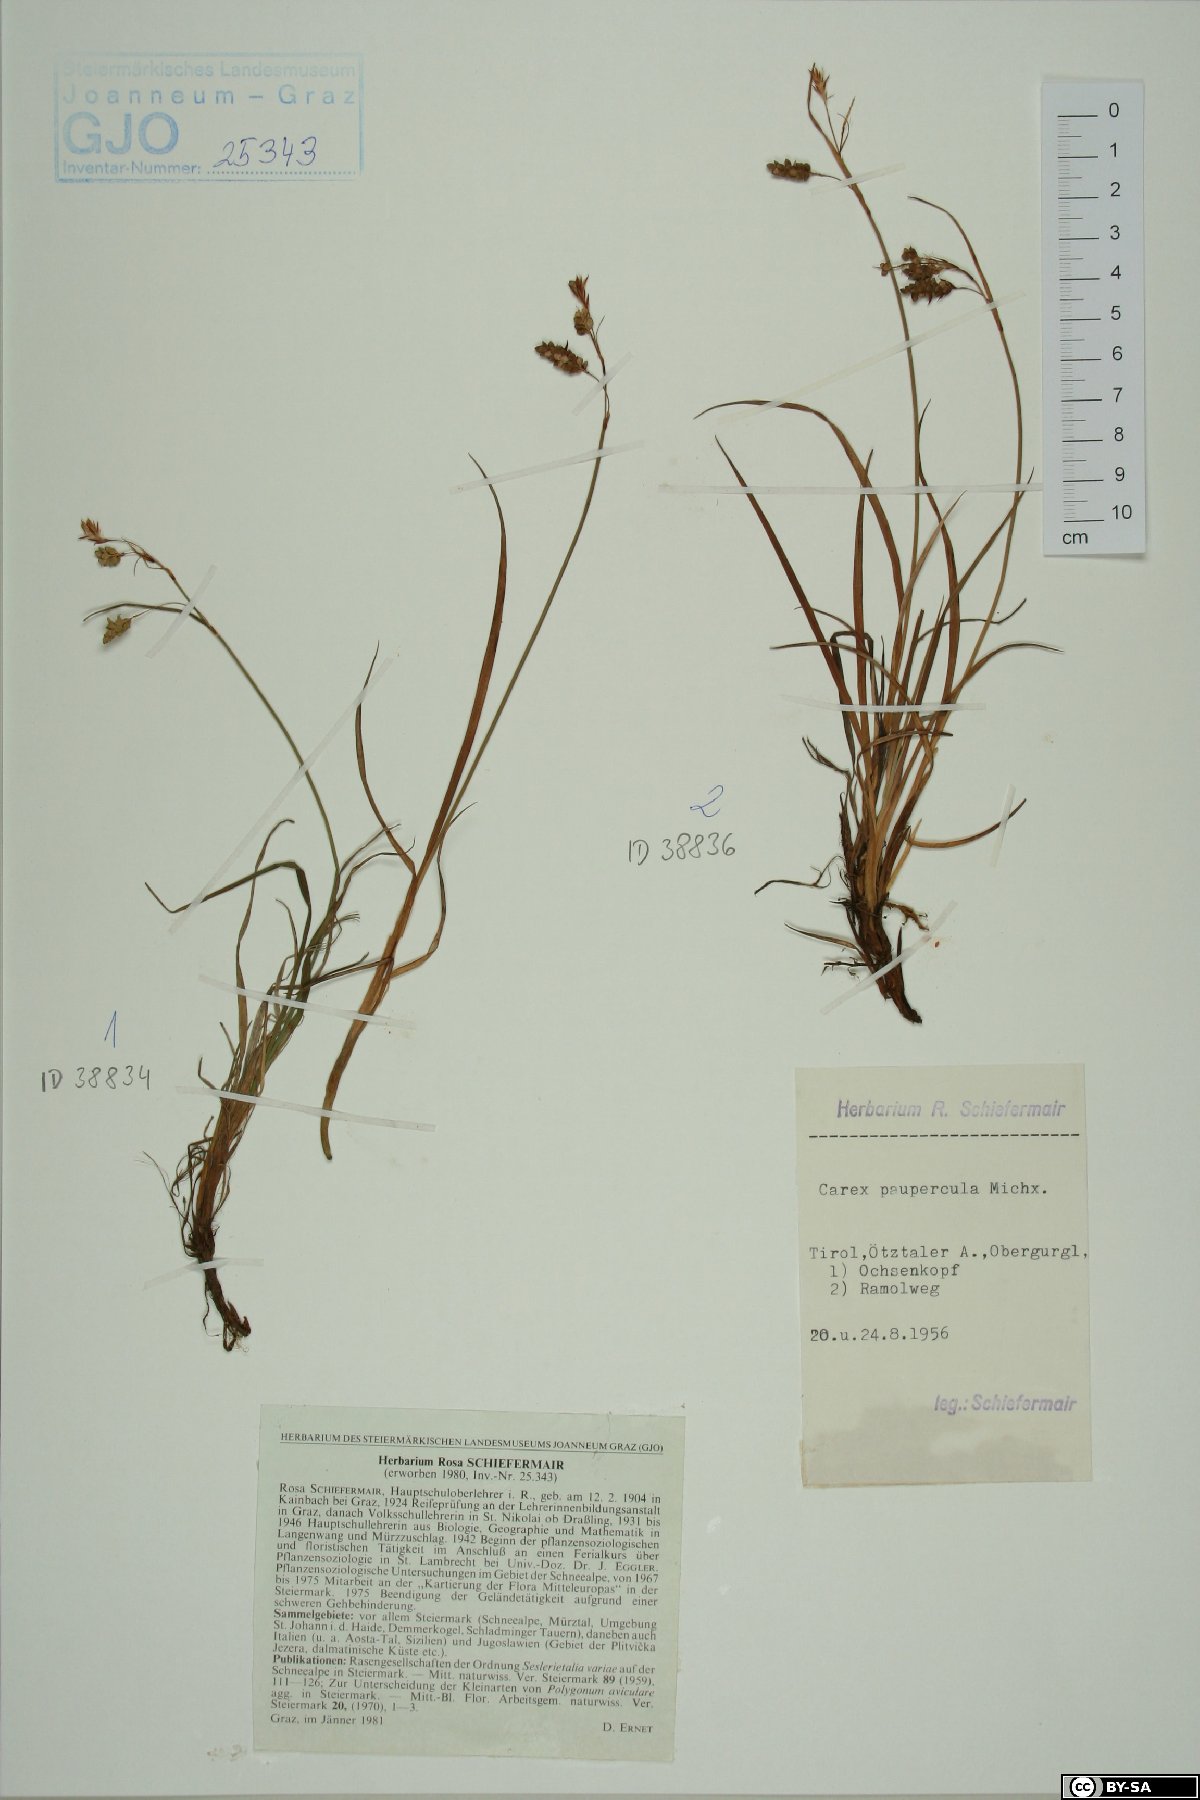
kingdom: Plantae
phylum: Tracheophyta
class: Liliopsida
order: Poales
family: Cyperaceae
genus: Carex
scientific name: Carex magellanica
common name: Bog sedge
